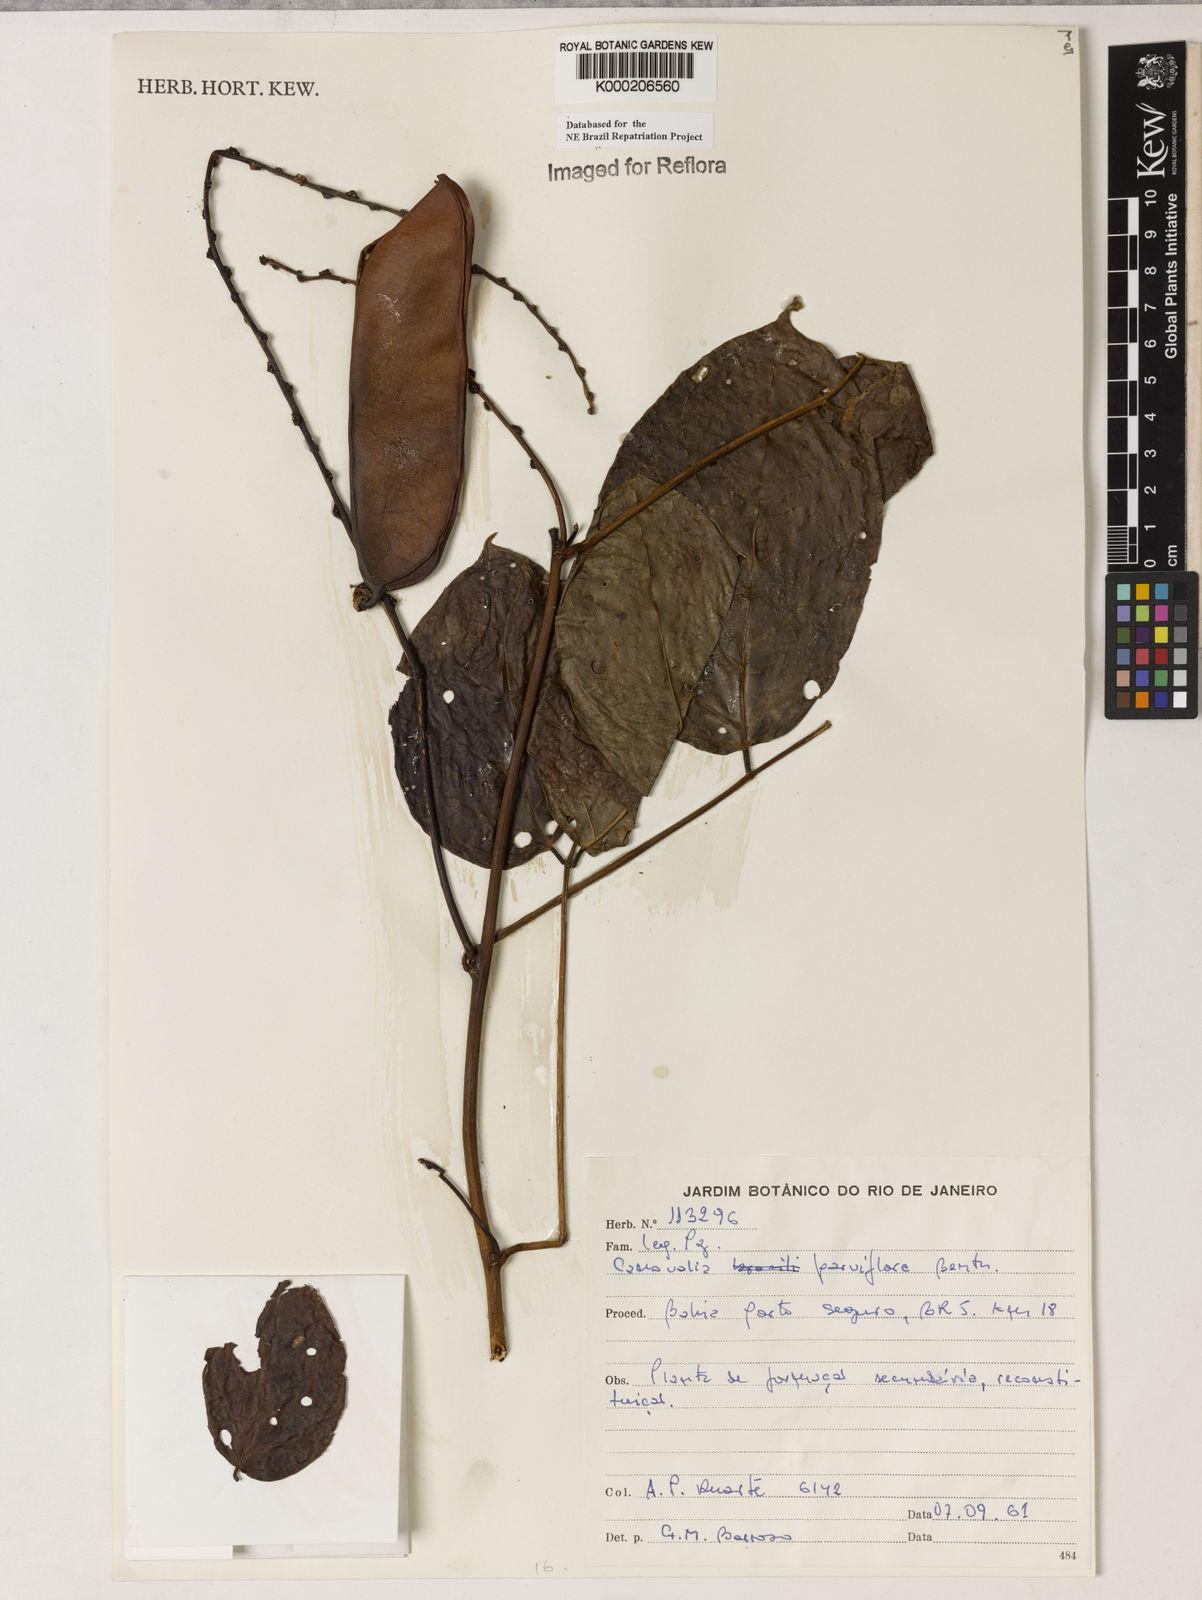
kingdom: Plantae
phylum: Tracheophyta
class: Magnoliopsida
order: Fabales
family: Fabaceae
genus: Canavalia
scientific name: Canavalia parviflora
